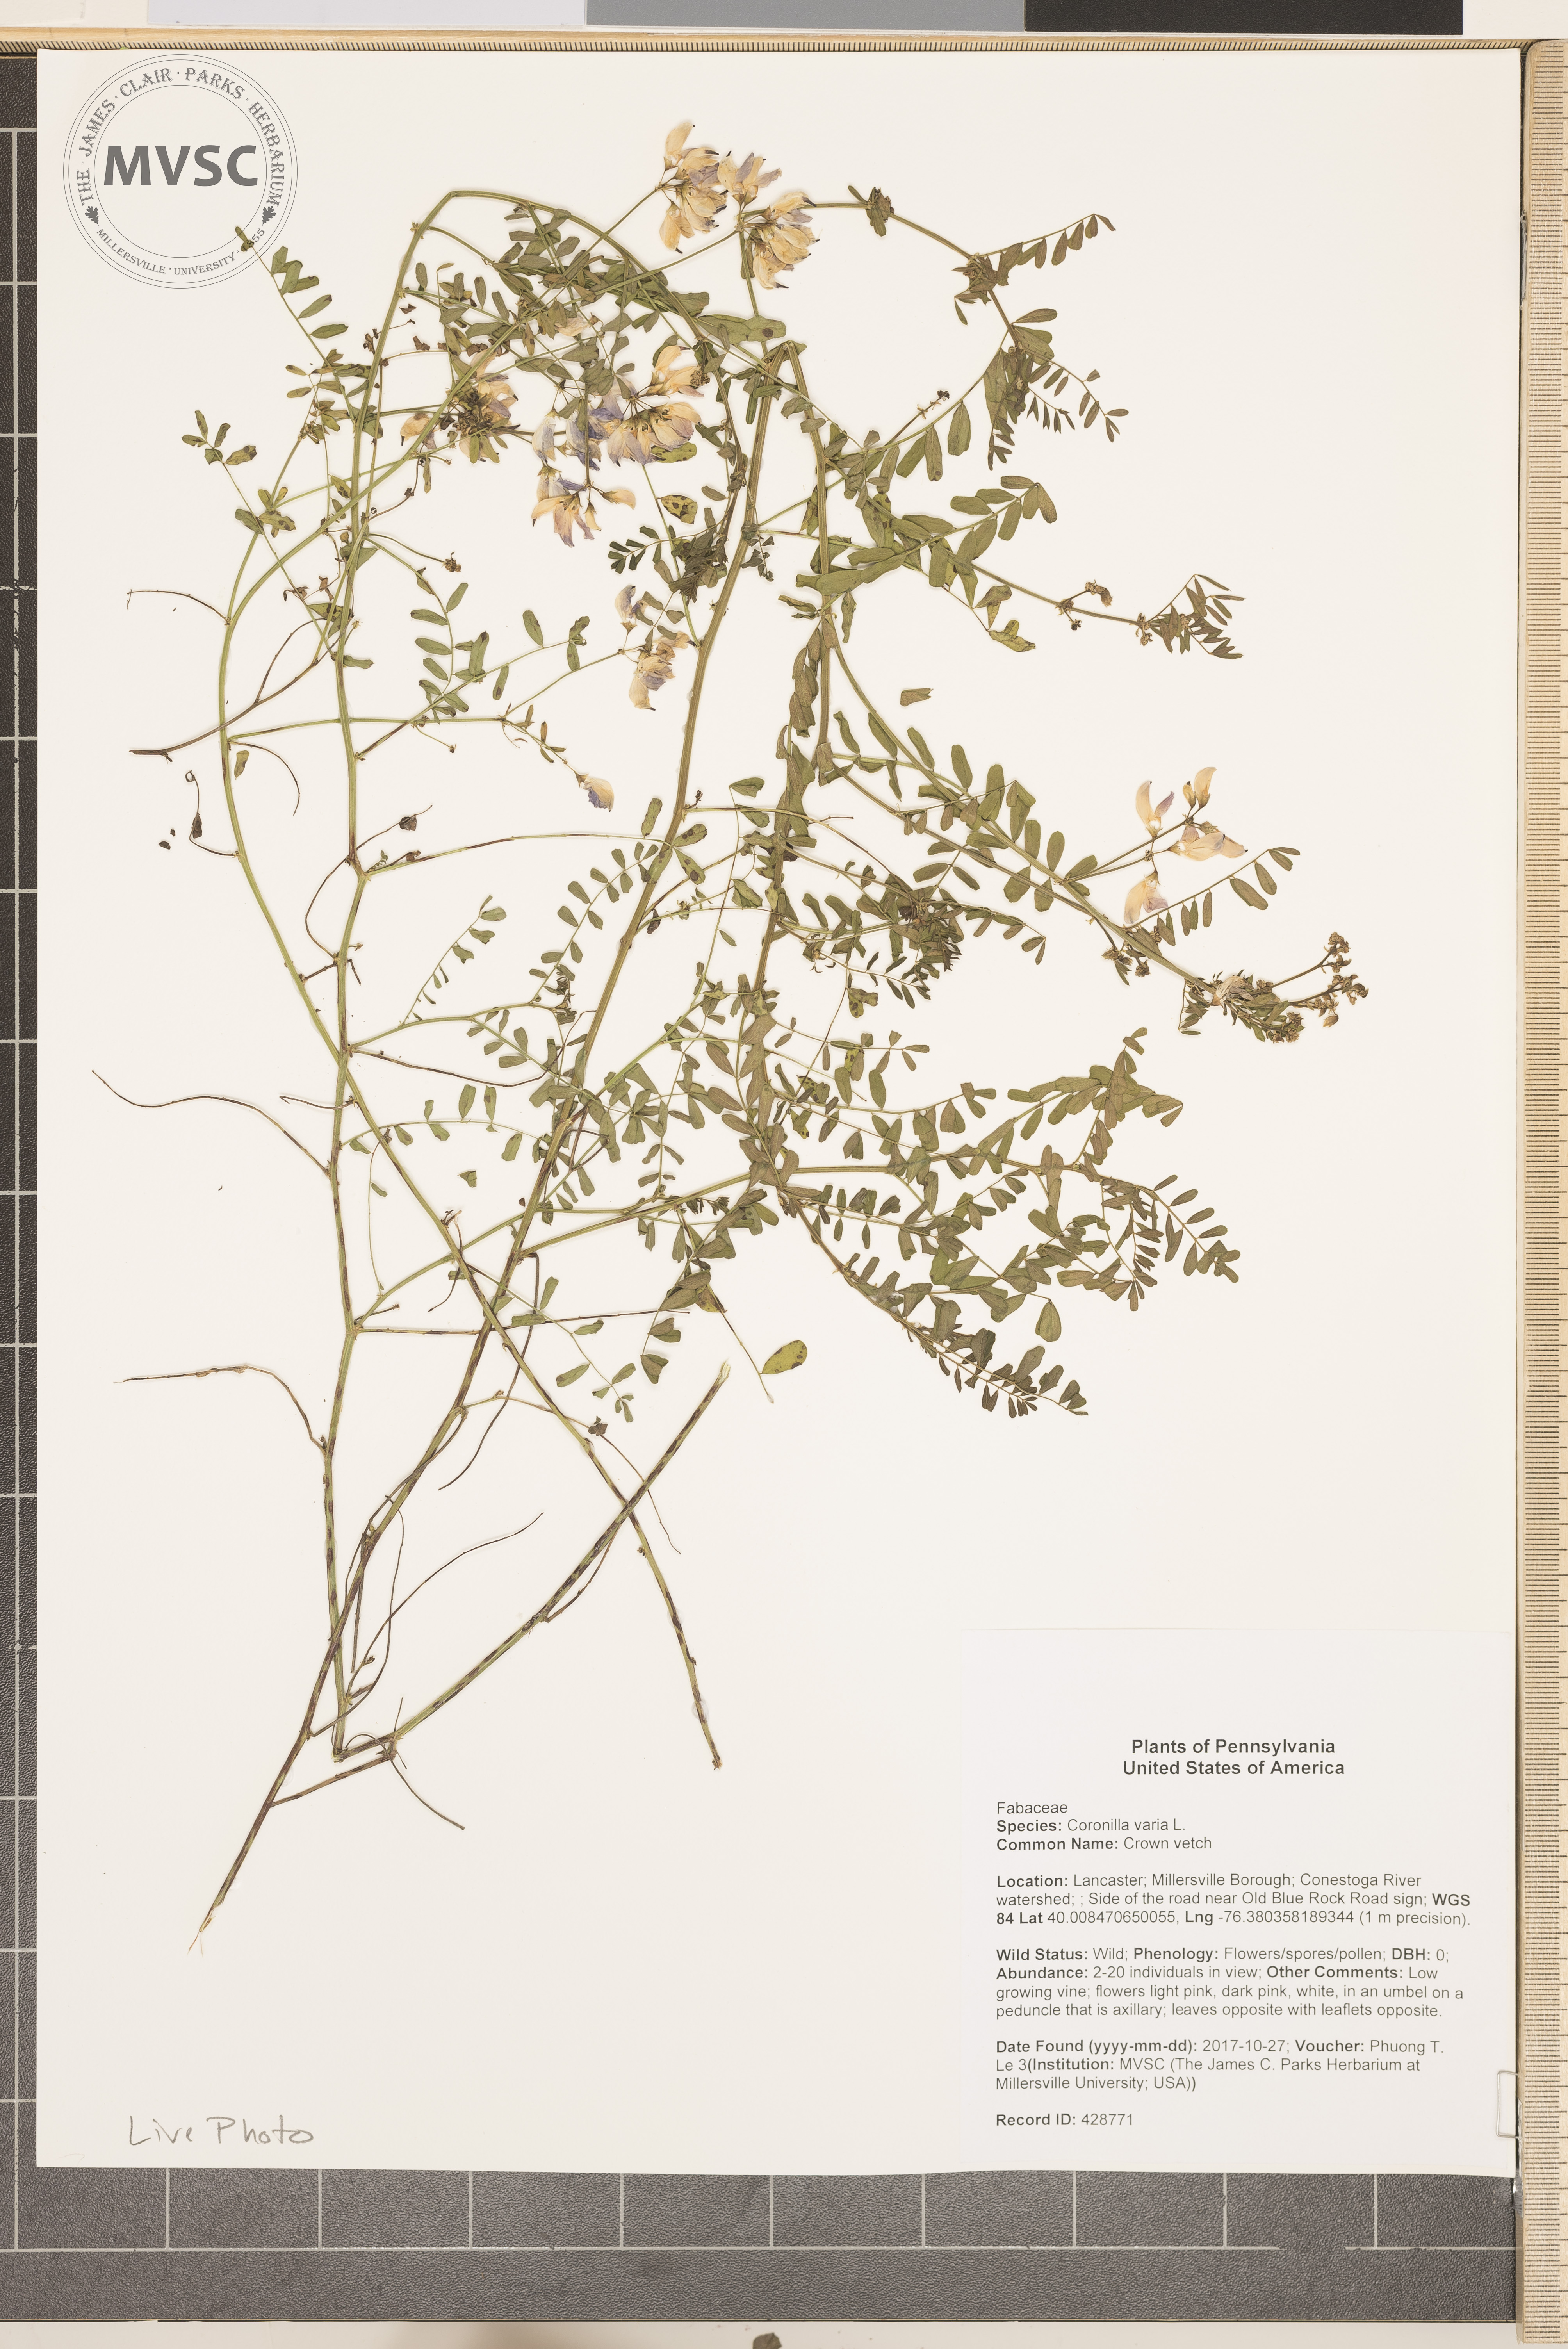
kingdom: Plantae
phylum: Tracheophyta
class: Magnoliopsida
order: Fabales
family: Fabaceae
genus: Coronilla
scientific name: Coronilla varia
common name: Crown vetch
